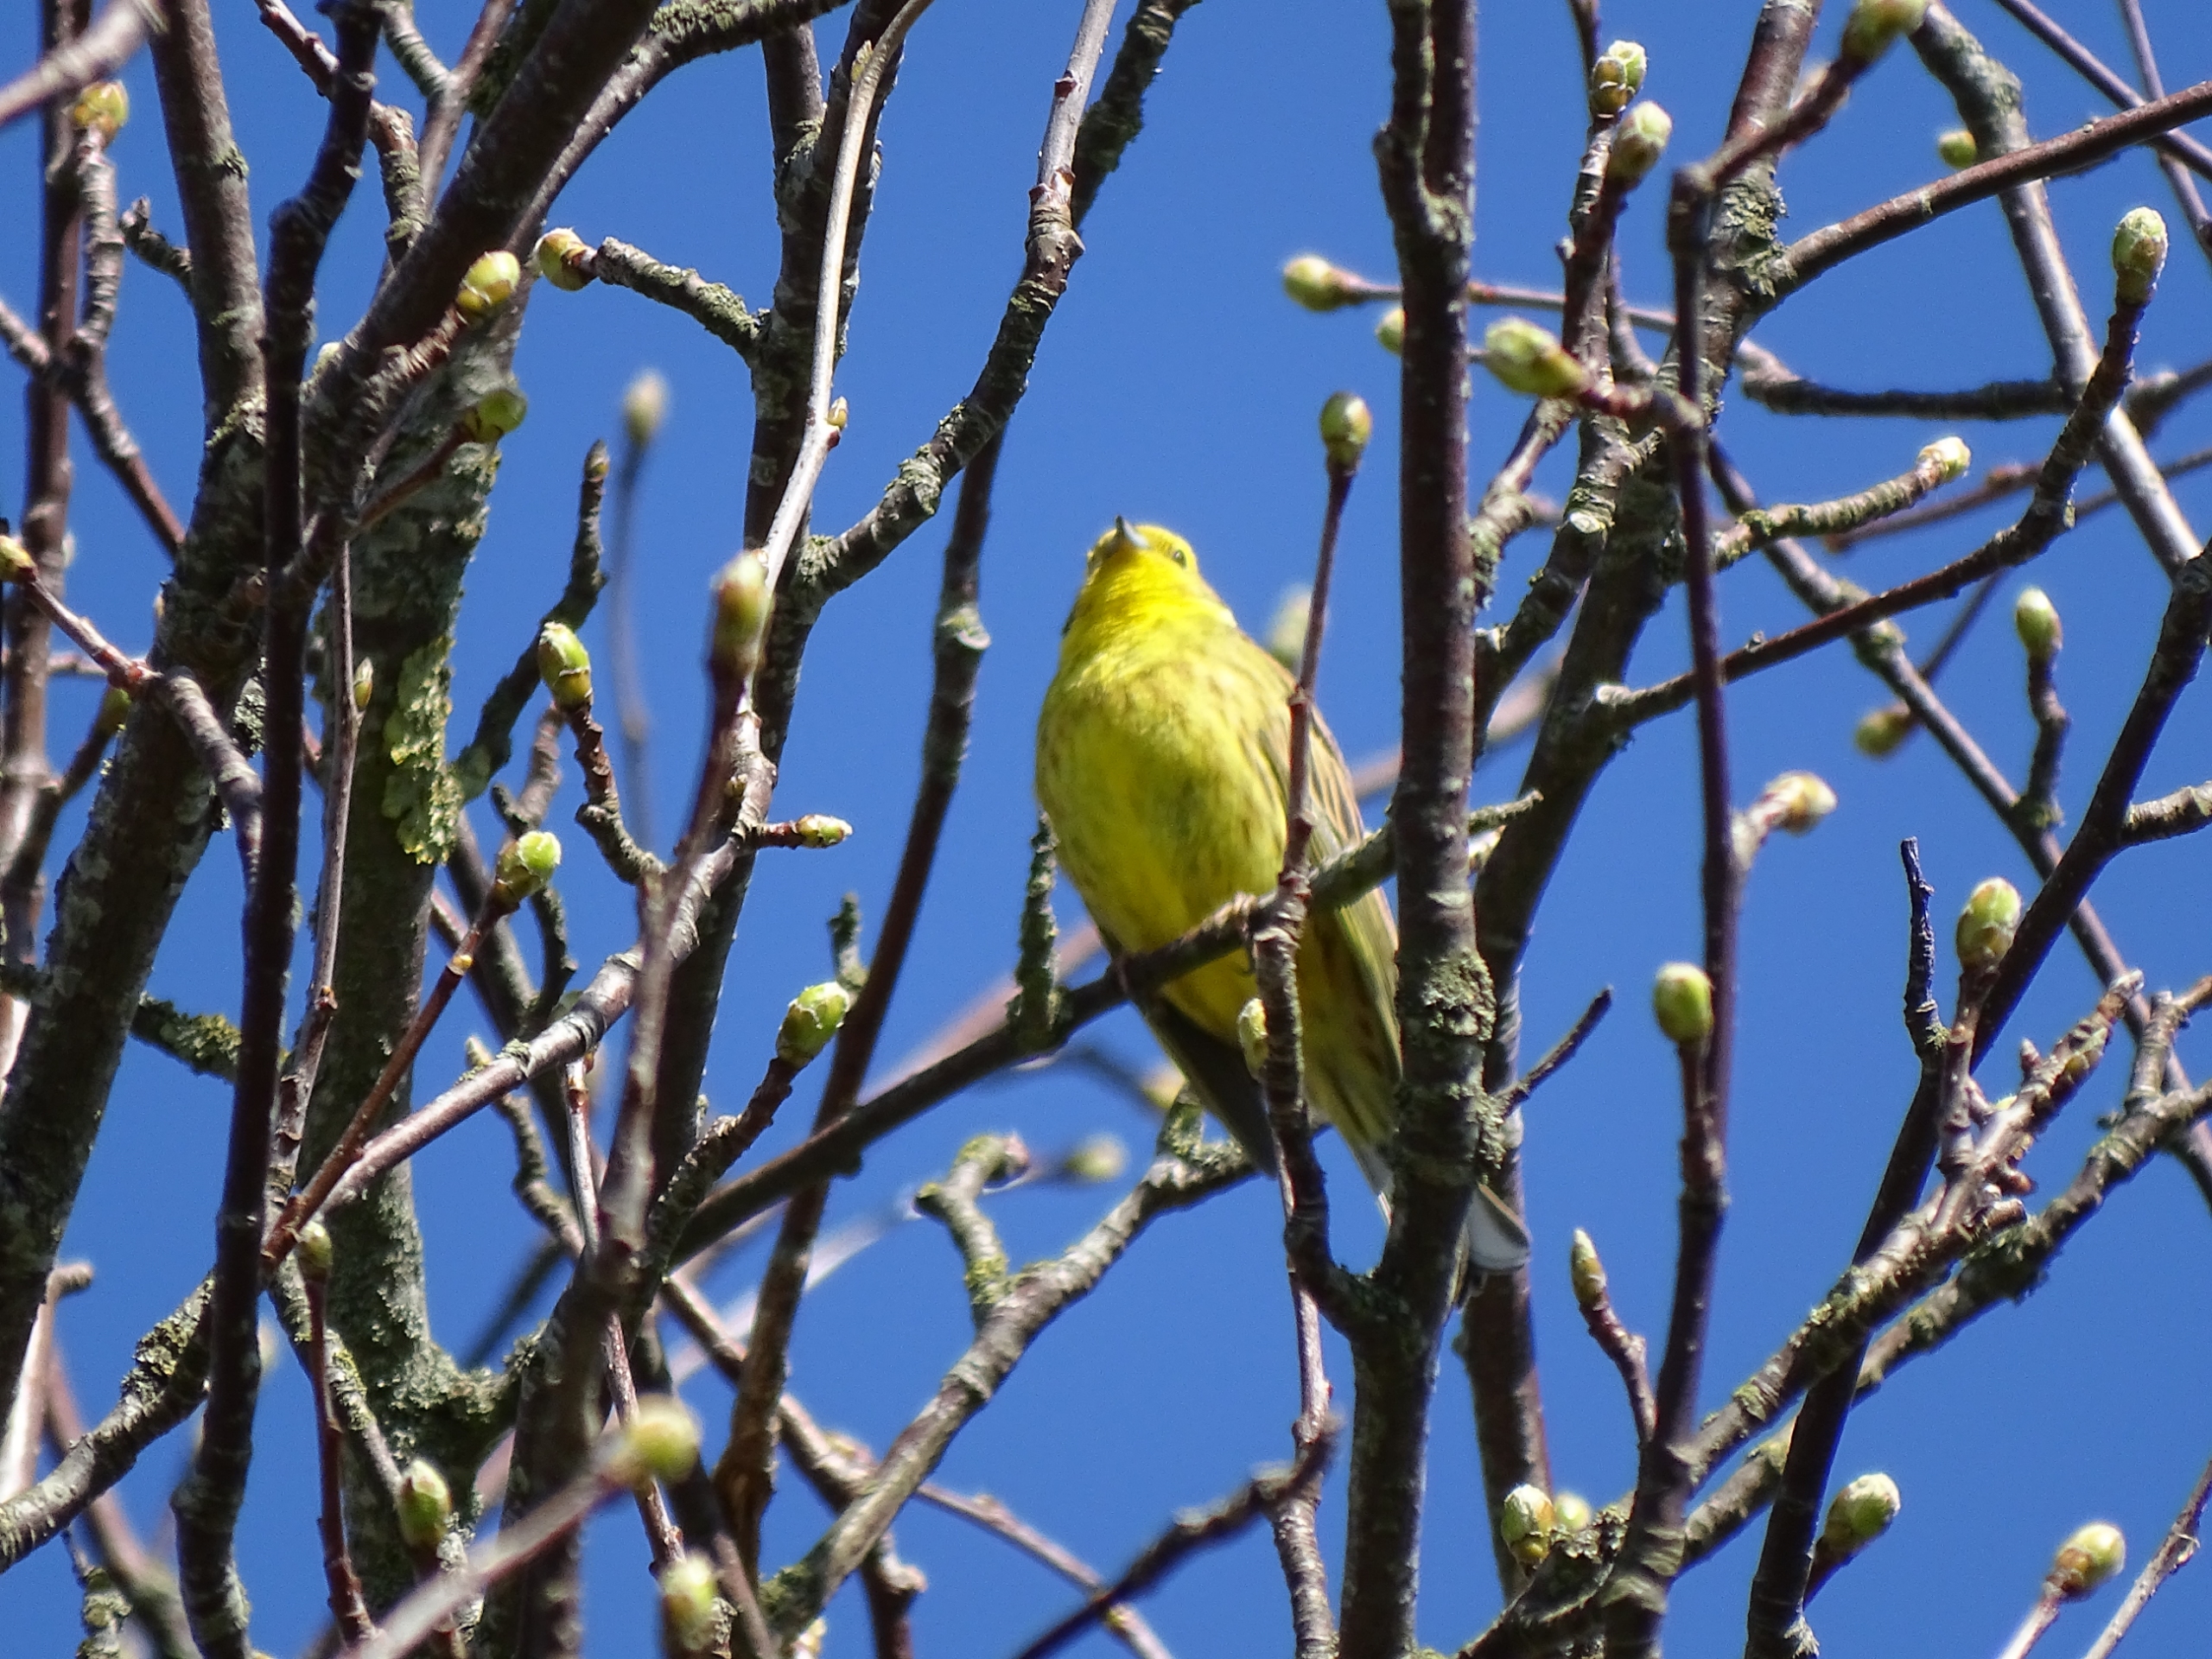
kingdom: Animalia
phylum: Chordata
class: Aves
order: Passeriformes
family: Emberizidae
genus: Emberiza
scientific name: Emberiza citrinella
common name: Gulspurv
